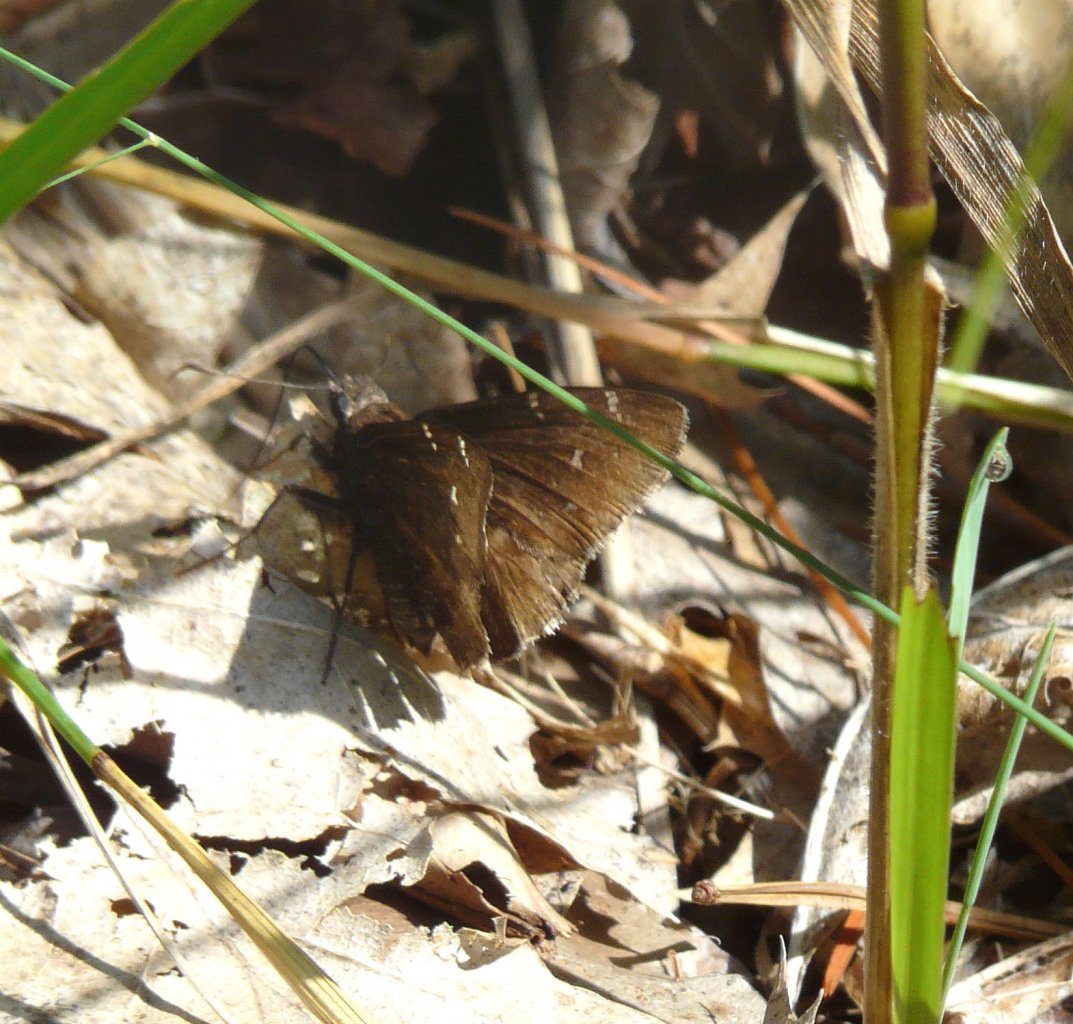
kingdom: Animalia
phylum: Arthropoda
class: Insecta
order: Lepidoptera
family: Hesperiidae
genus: Autochton
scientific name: Autochton
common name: Northern Cloudywing
